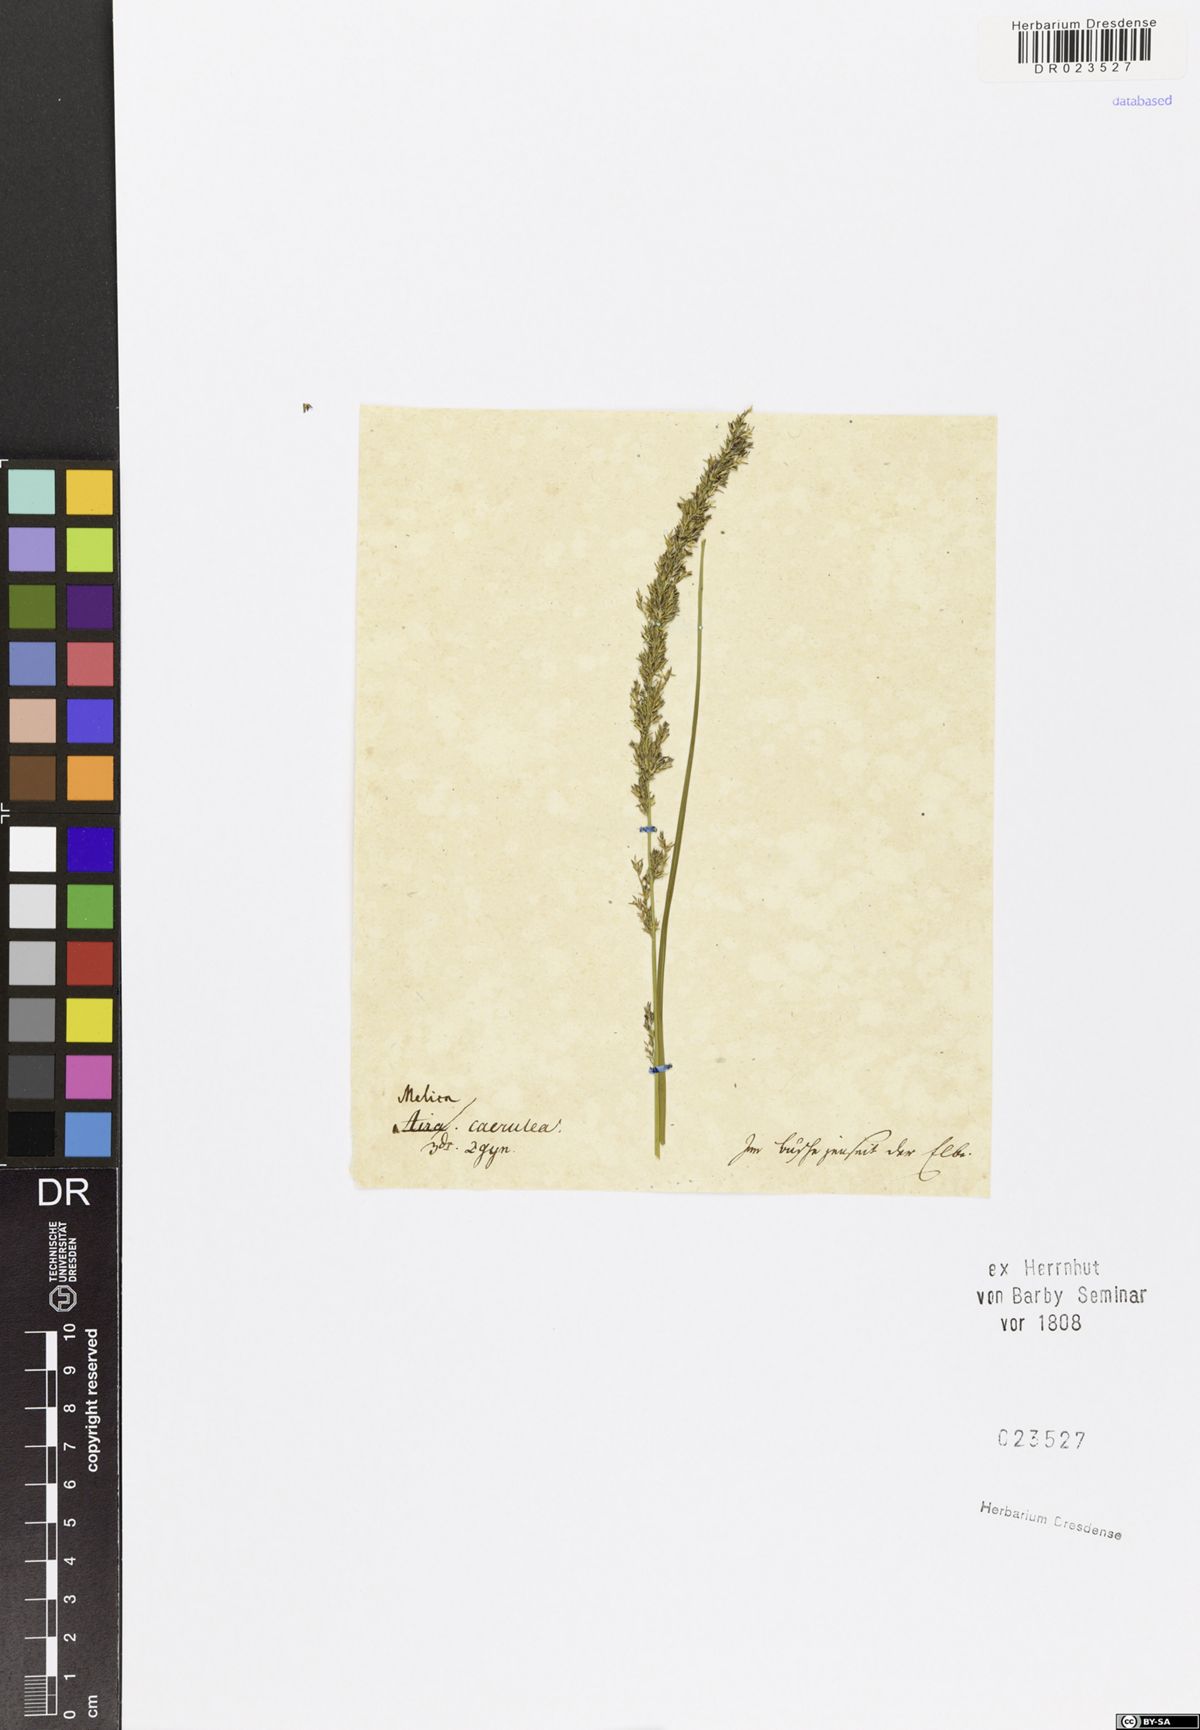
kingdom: Plantae
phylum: Tracheophyta
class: Liliopsida
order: Poales
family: Poaceae
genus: Molinia
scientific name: Molinia caerulea
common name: Purple moor-grass
